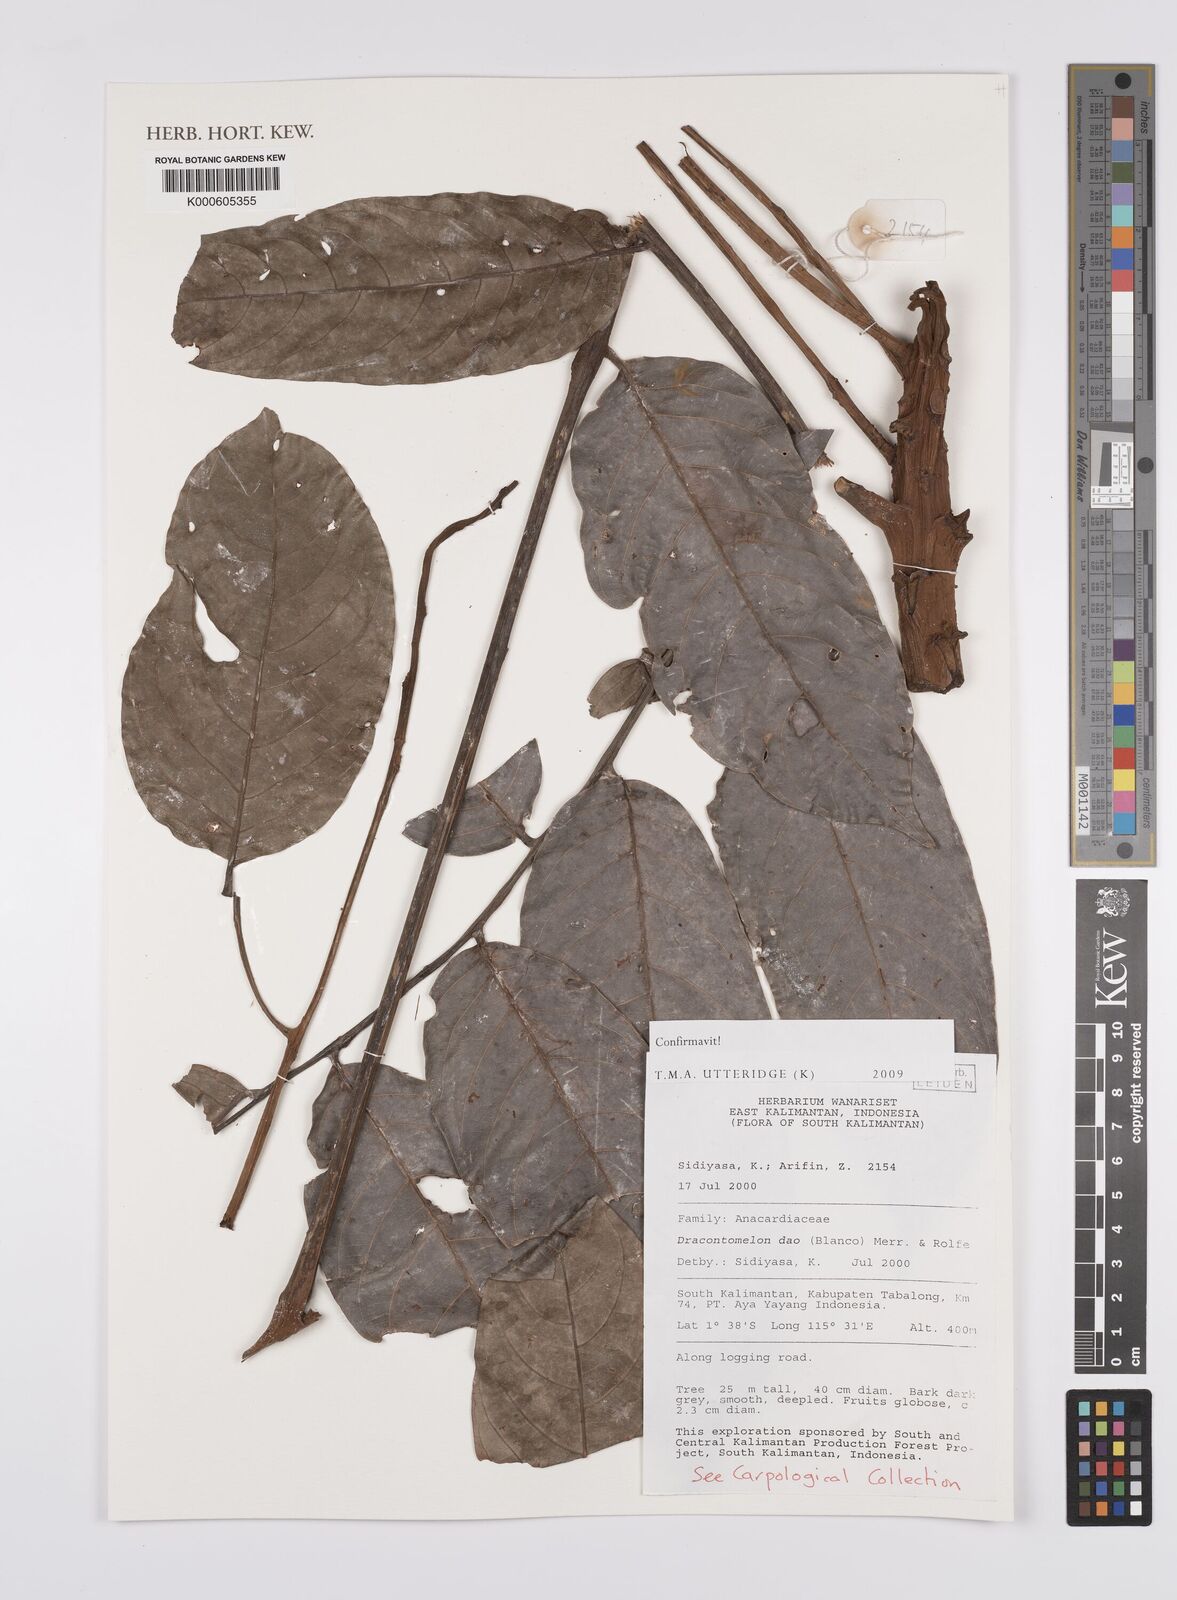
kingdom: Plantae
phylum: Tracheophyta
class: Magnoliopsida
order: Sapindales
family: Anacardiaceae
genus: Dracontomelon
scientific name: Dracontomelon dao
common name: Argus pheasant-tree
